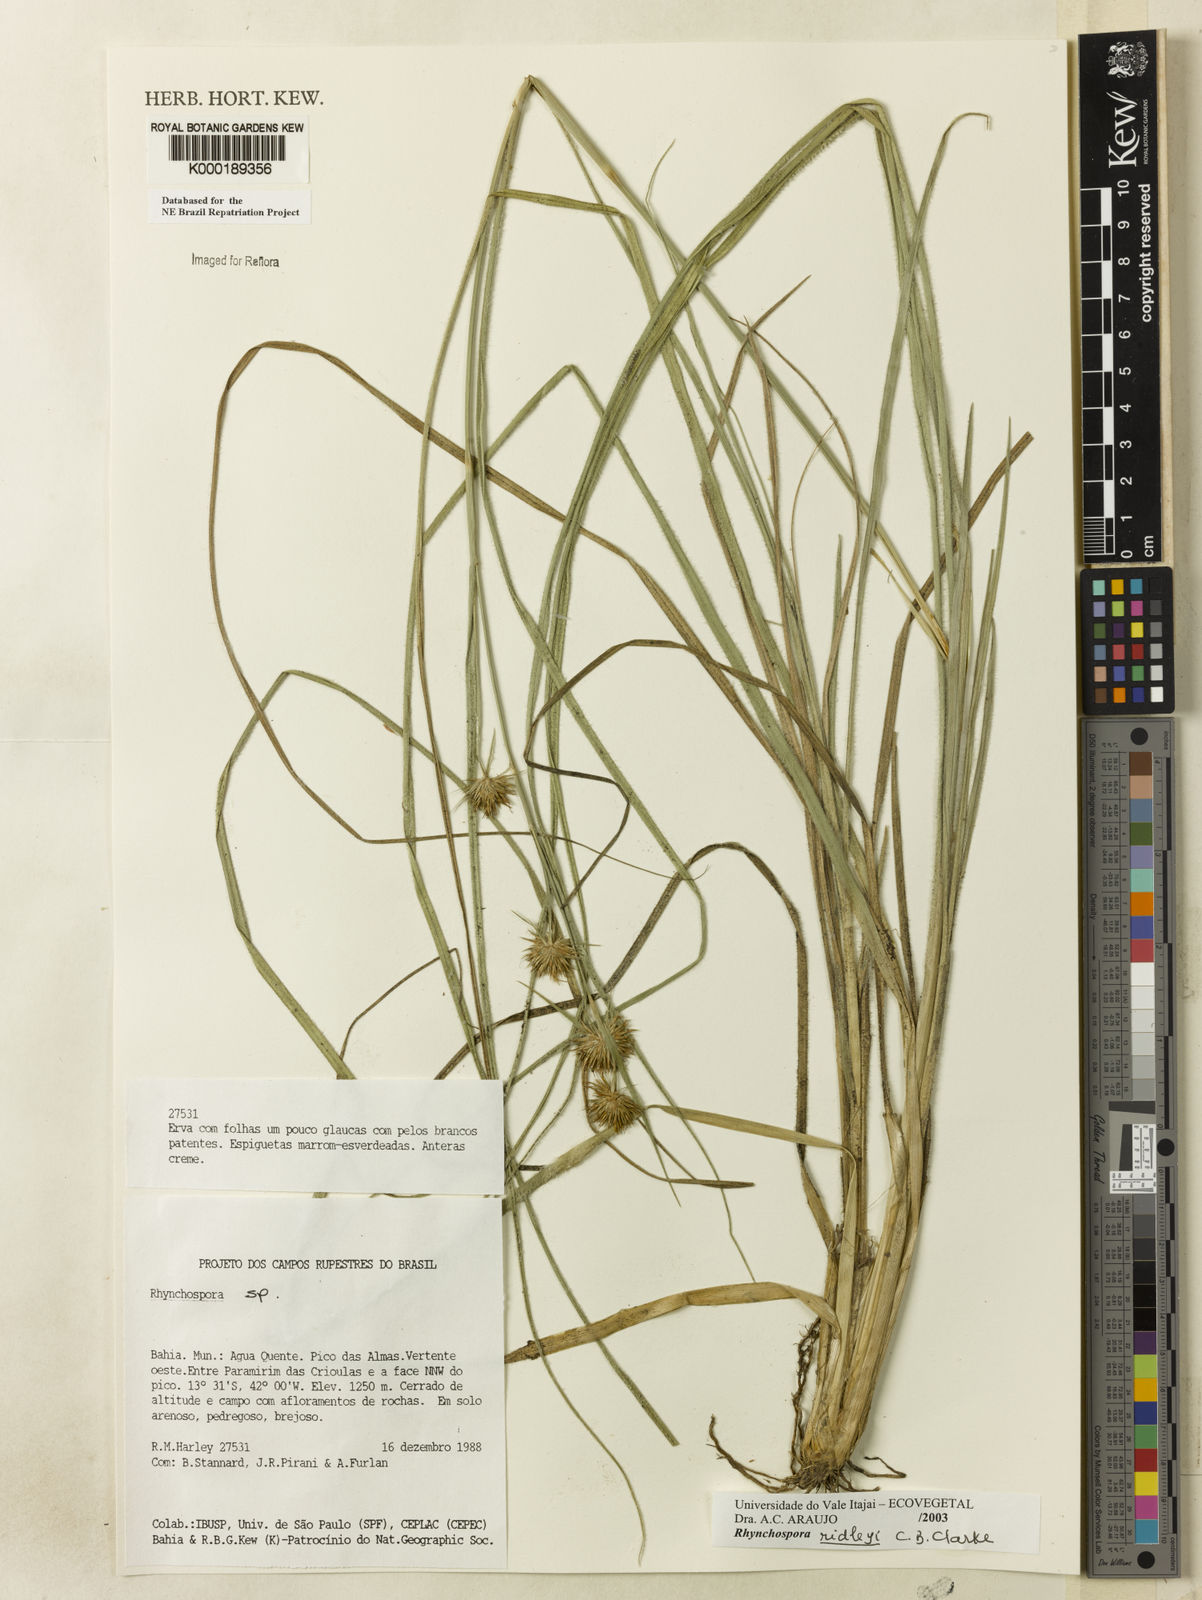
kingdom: Plantae
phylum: Tracheophyta
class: Liliopsida
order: Poales
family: Cyperaceae
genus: Rhynchospora
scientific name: Rhynchospora ridleyi
